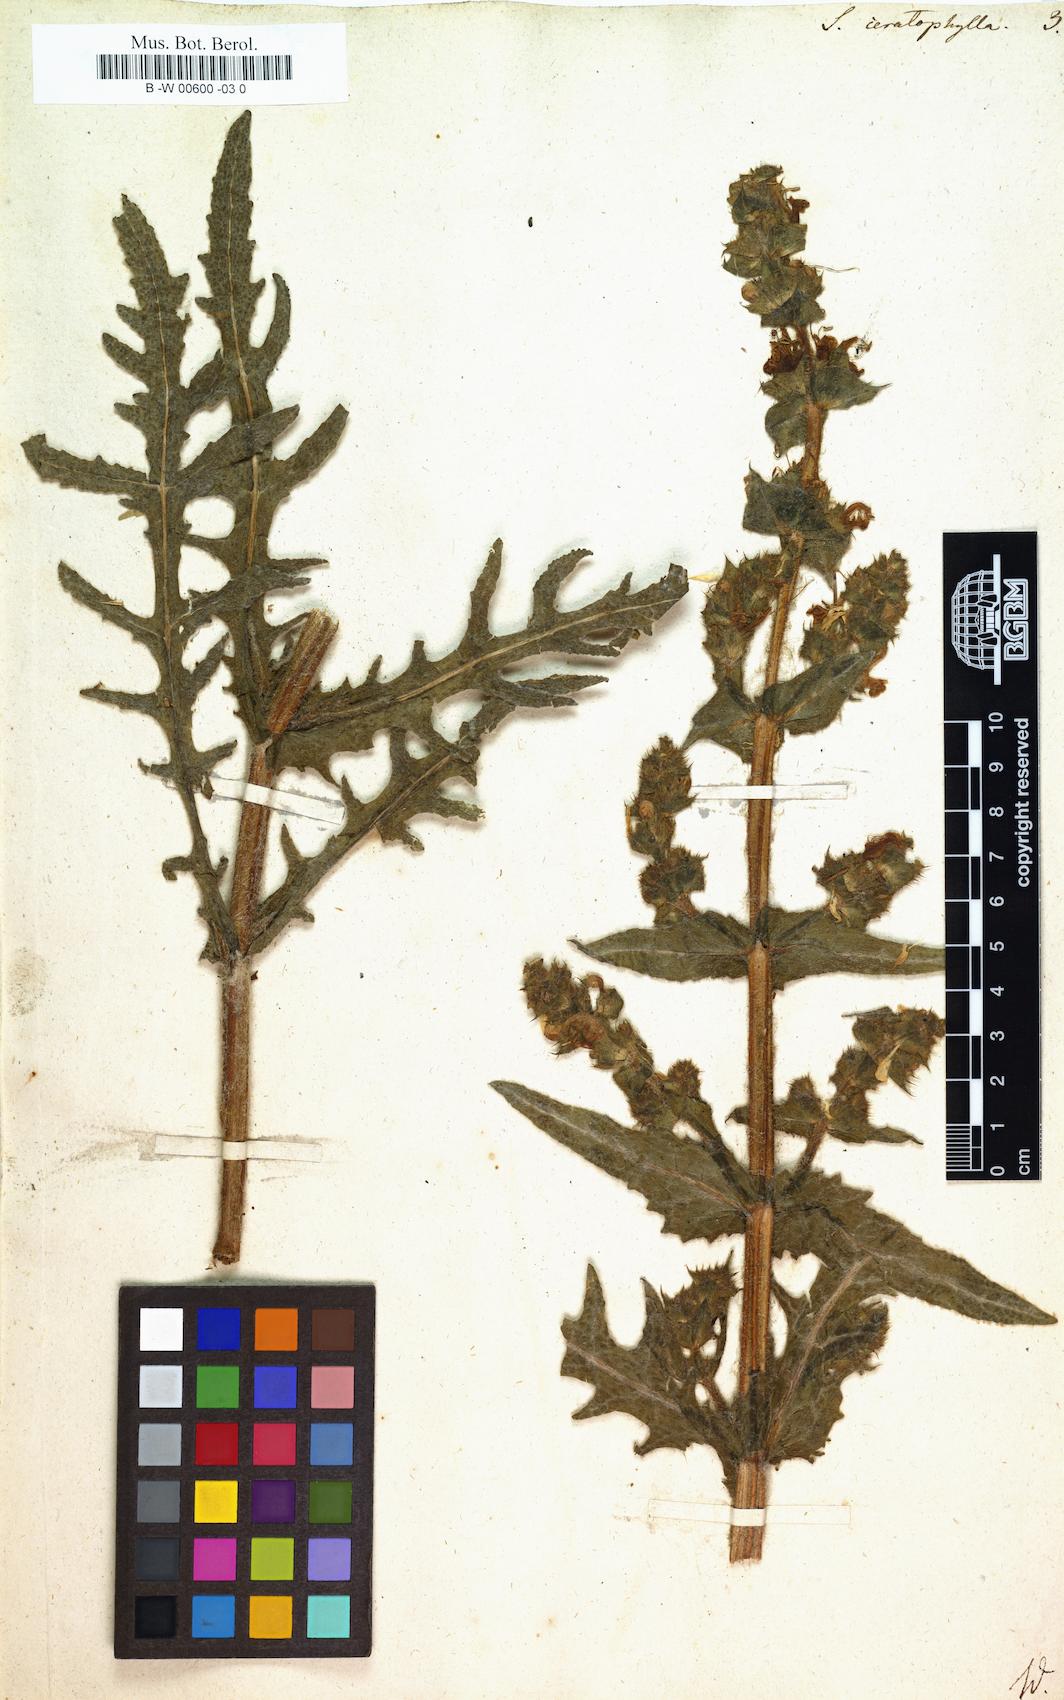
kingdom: Plantae
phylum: Tracheophyta
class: Magnoliopsida
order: Lamiales
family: Lamiaceae
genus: Salvia
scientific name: Salvia ceratophylla
